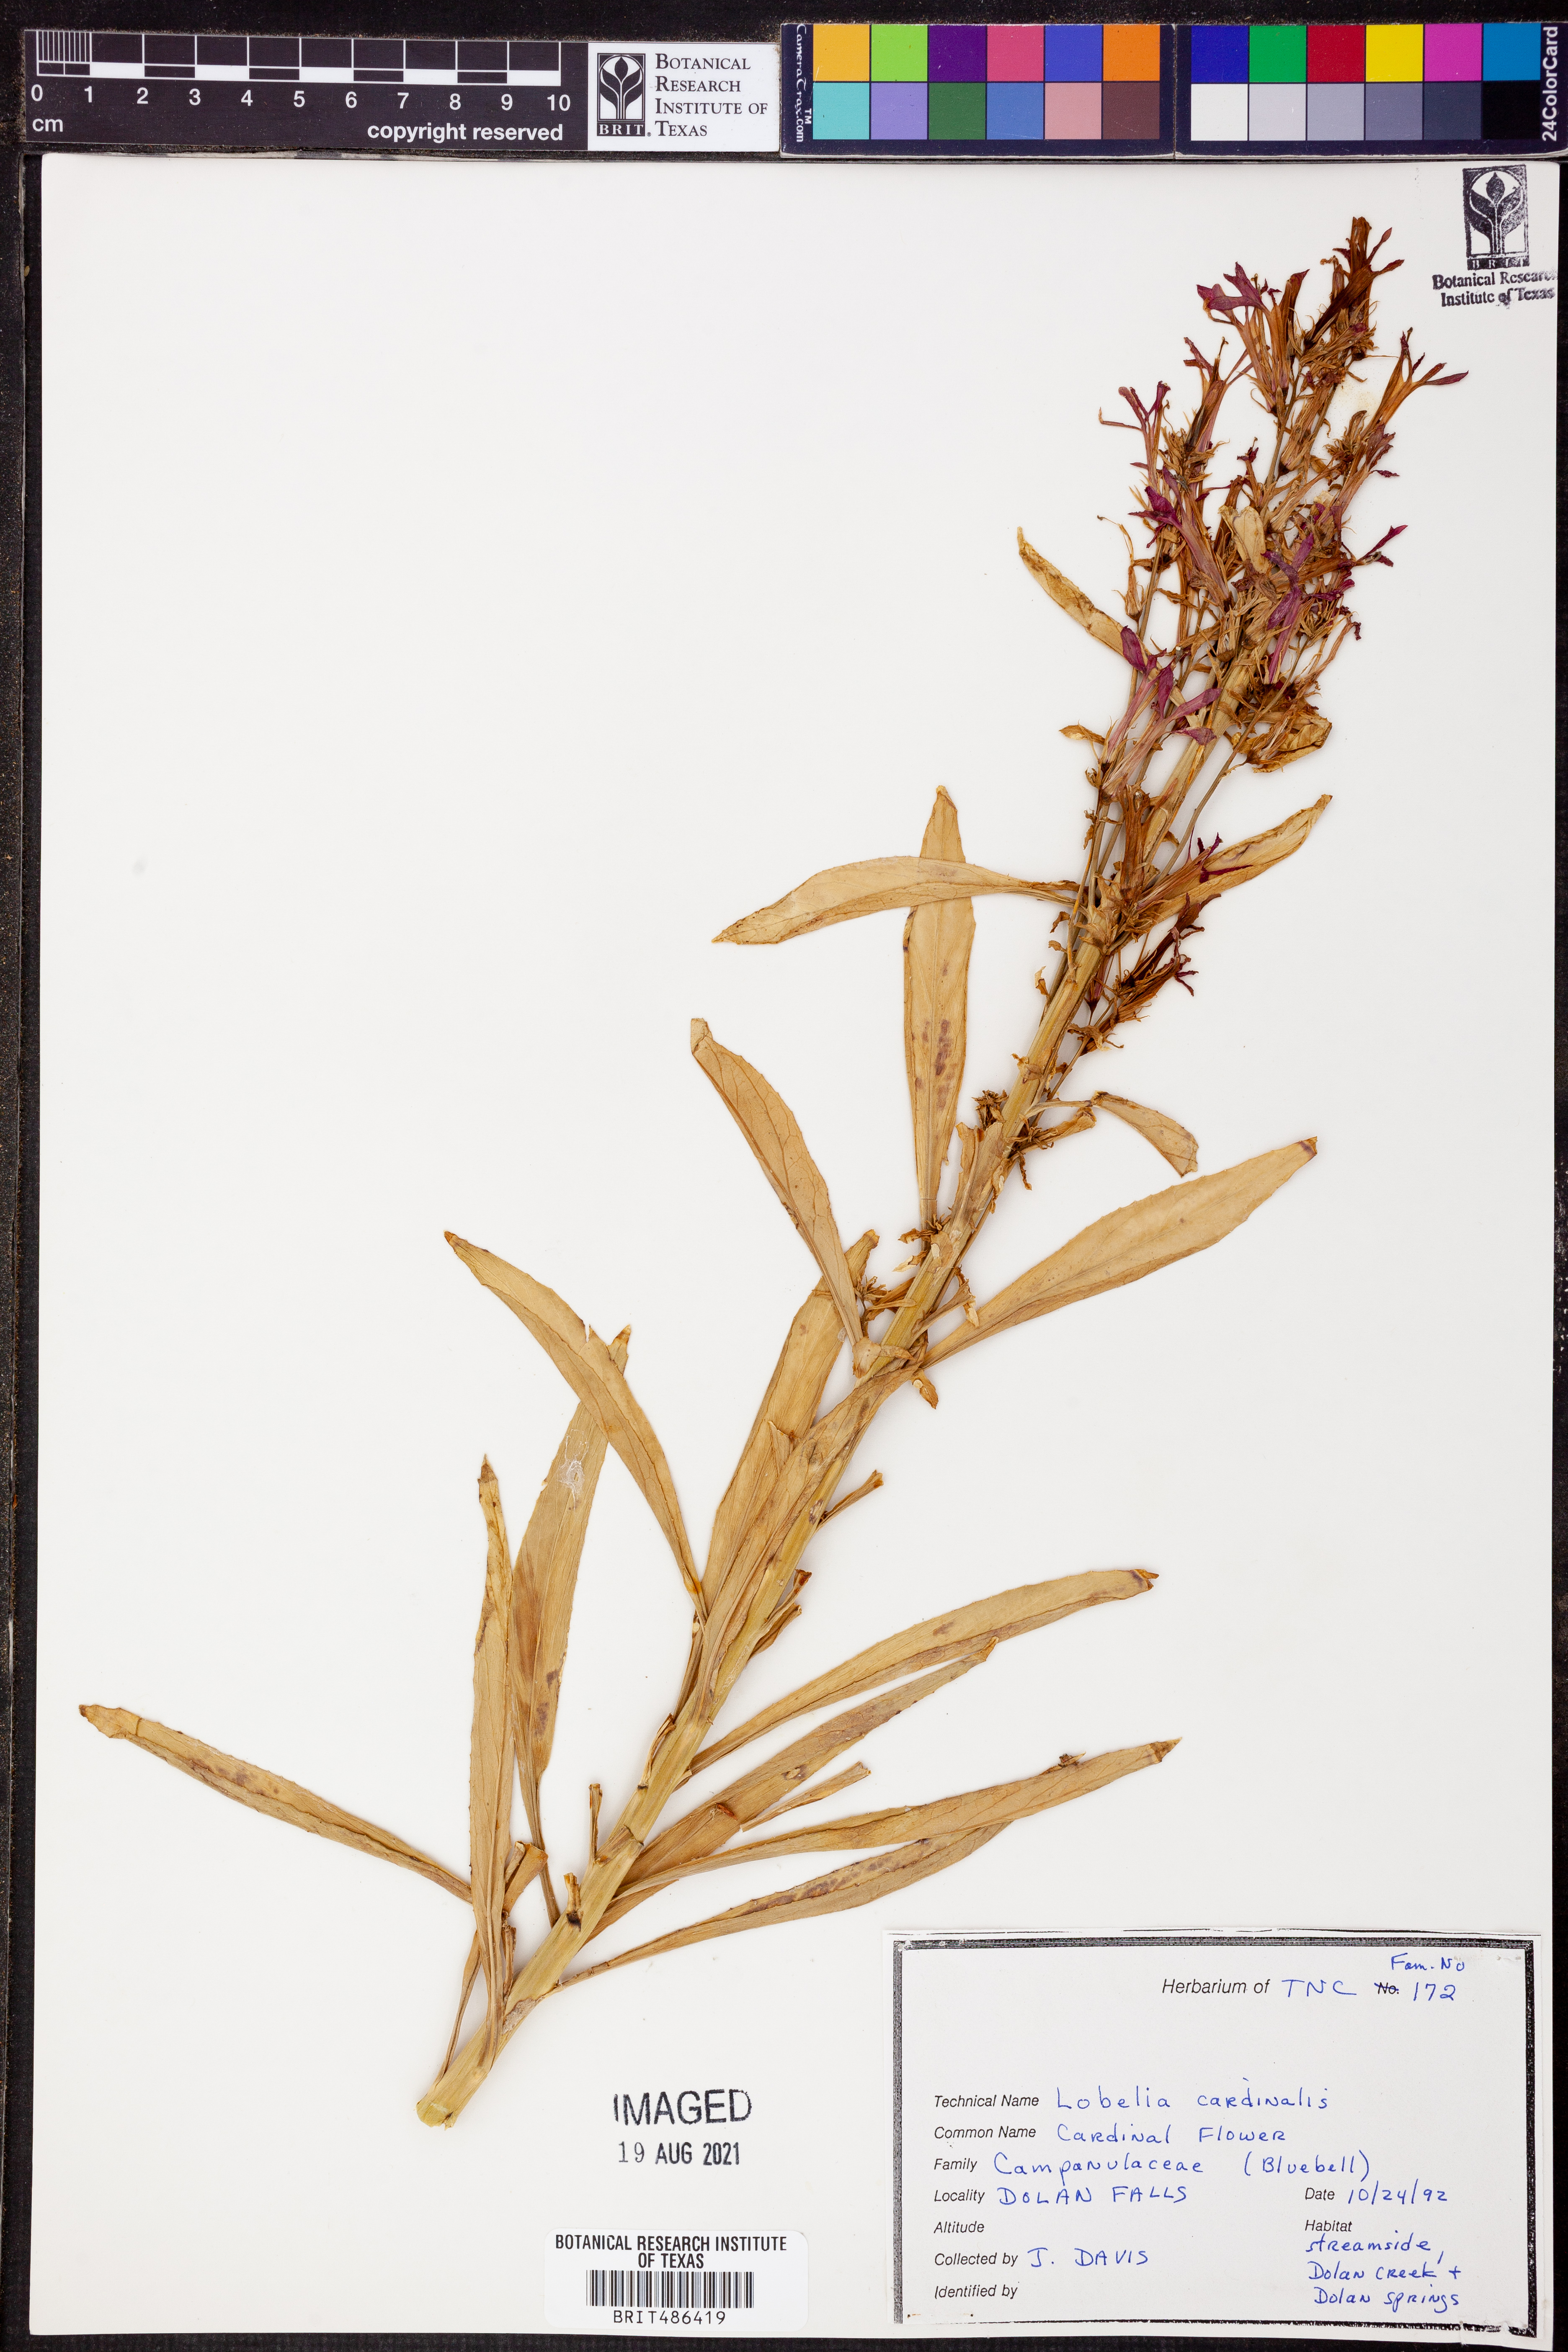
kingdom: Plantae
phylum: Tracheophyta
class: Magnoliopsida
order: Asterales
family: Campanulaceae
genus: Lobelia
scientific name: Lobelia cardinalis
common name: Cardinal flower
